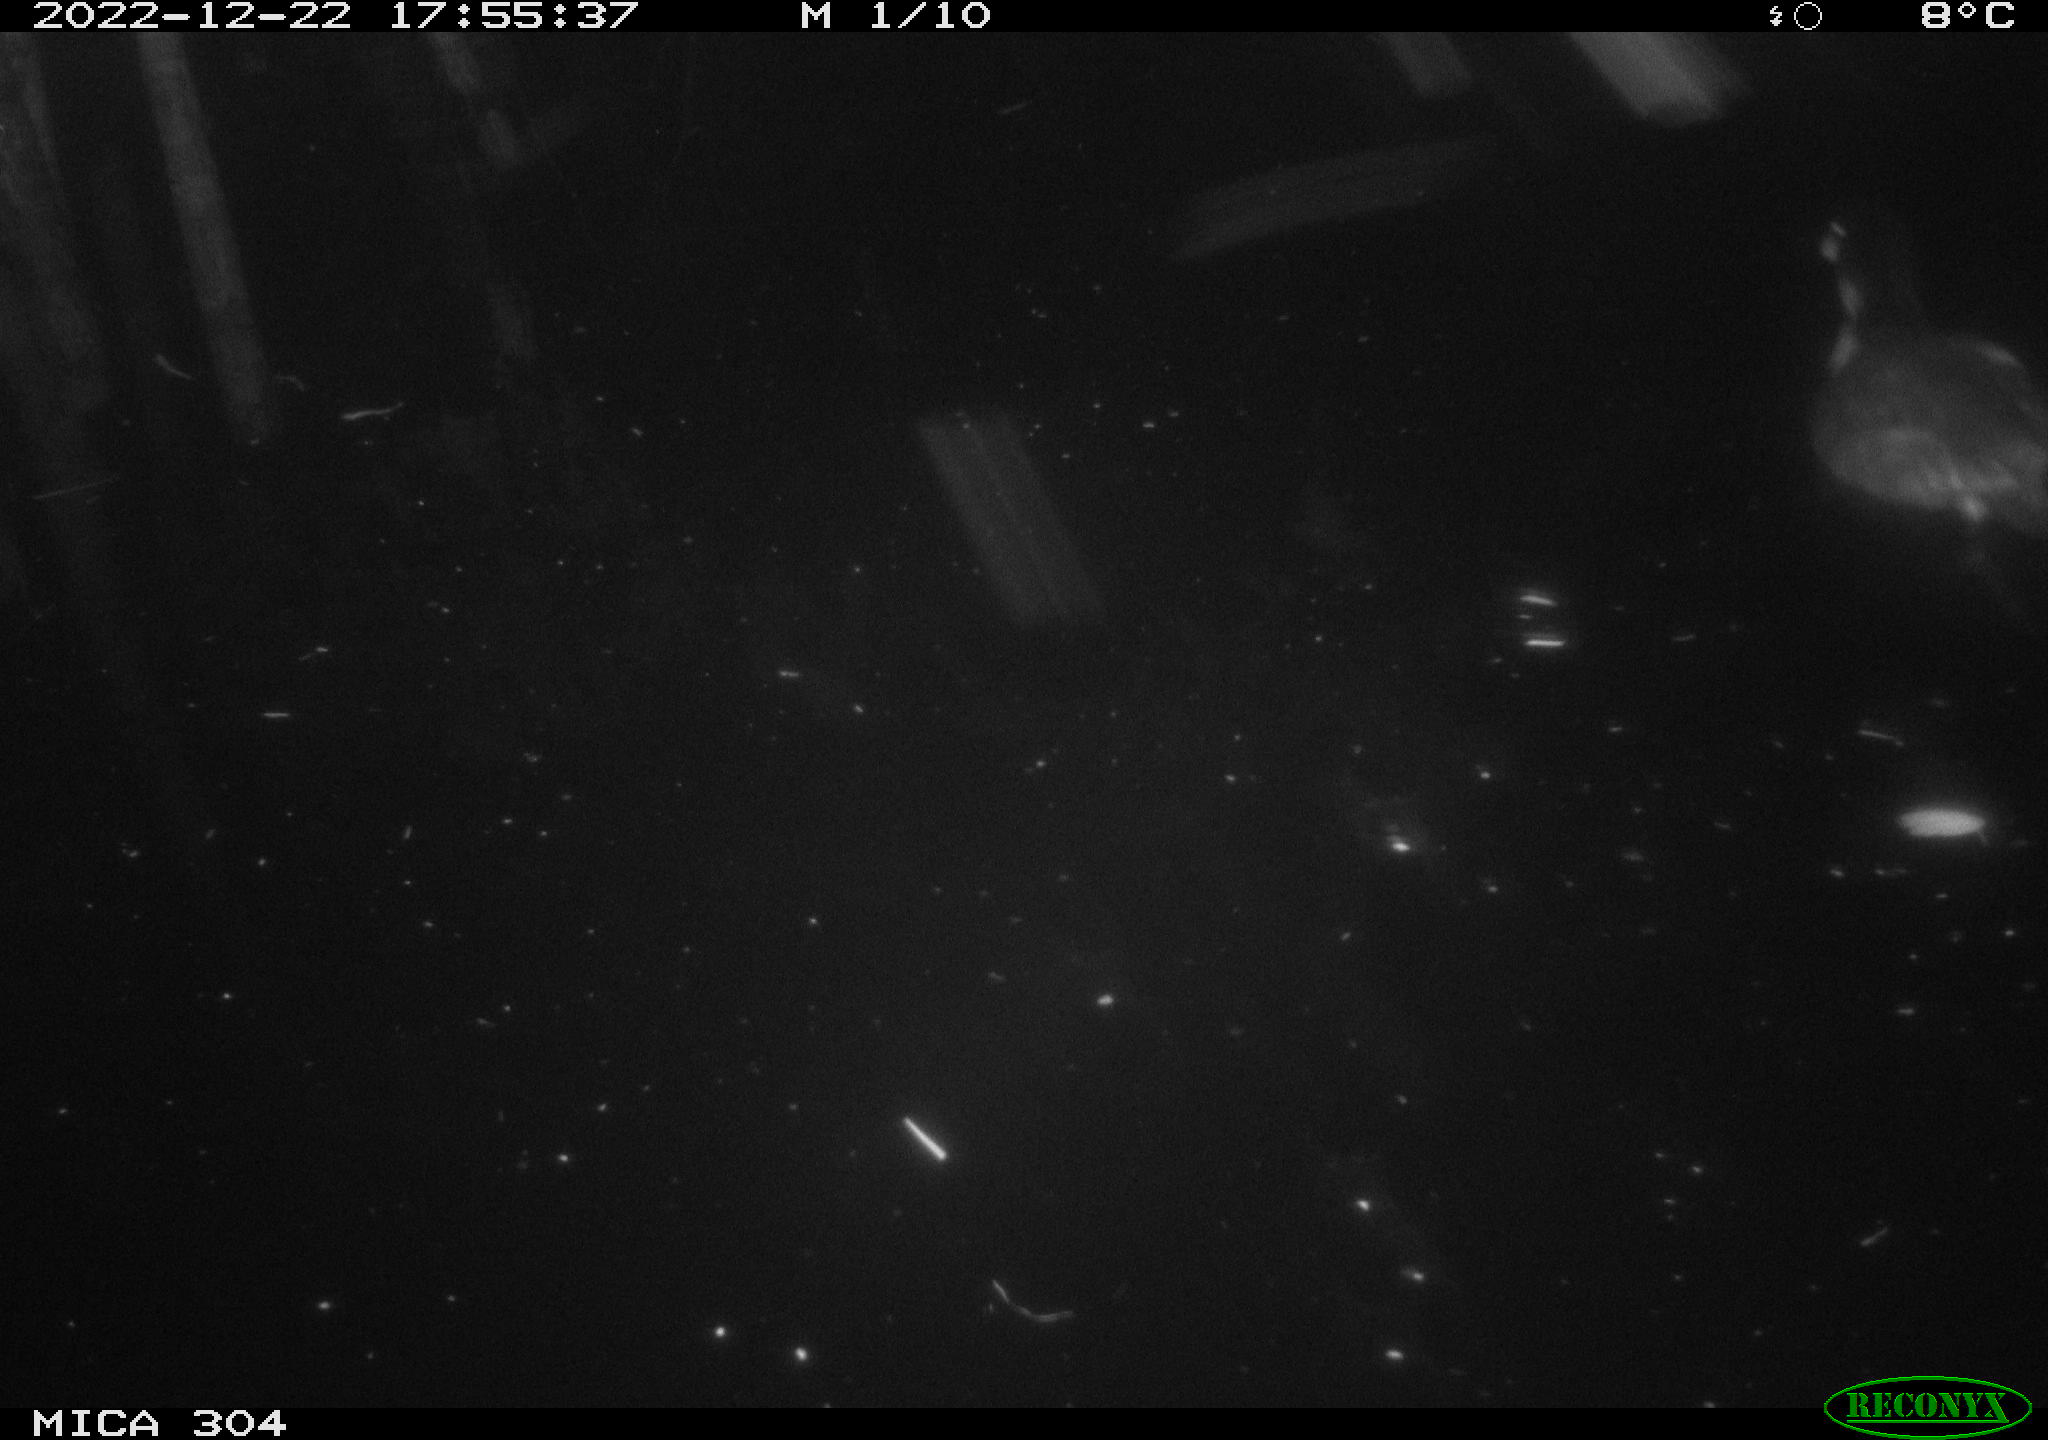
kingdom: Animalia
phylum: Chordata
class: Aves
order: Gruiformes
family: Rallidae
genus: Fulica
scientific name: Fulica atra
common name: Eurasian coot
